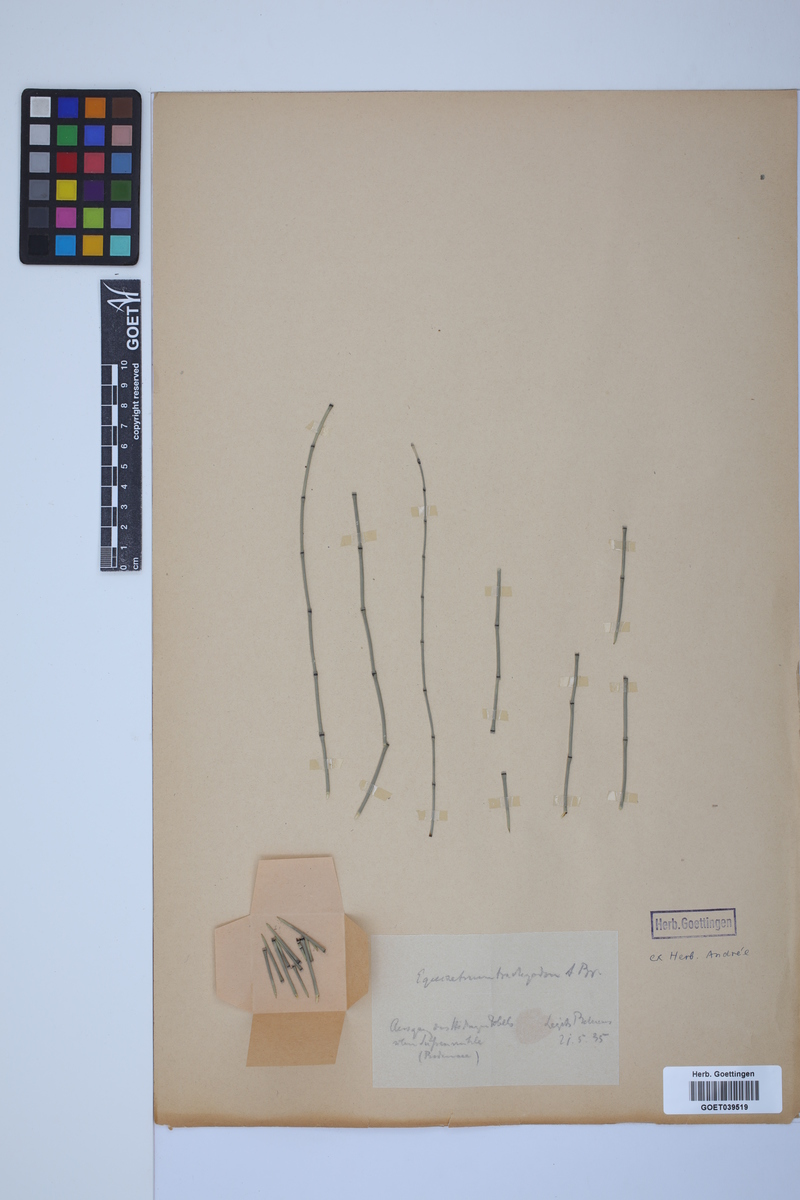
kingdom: Plantae
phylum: Tracheophyta
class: Polypodiopsida
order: Equisetales
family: Equisetaceae
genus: Equisetum
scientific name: Equisetum trachyodon
